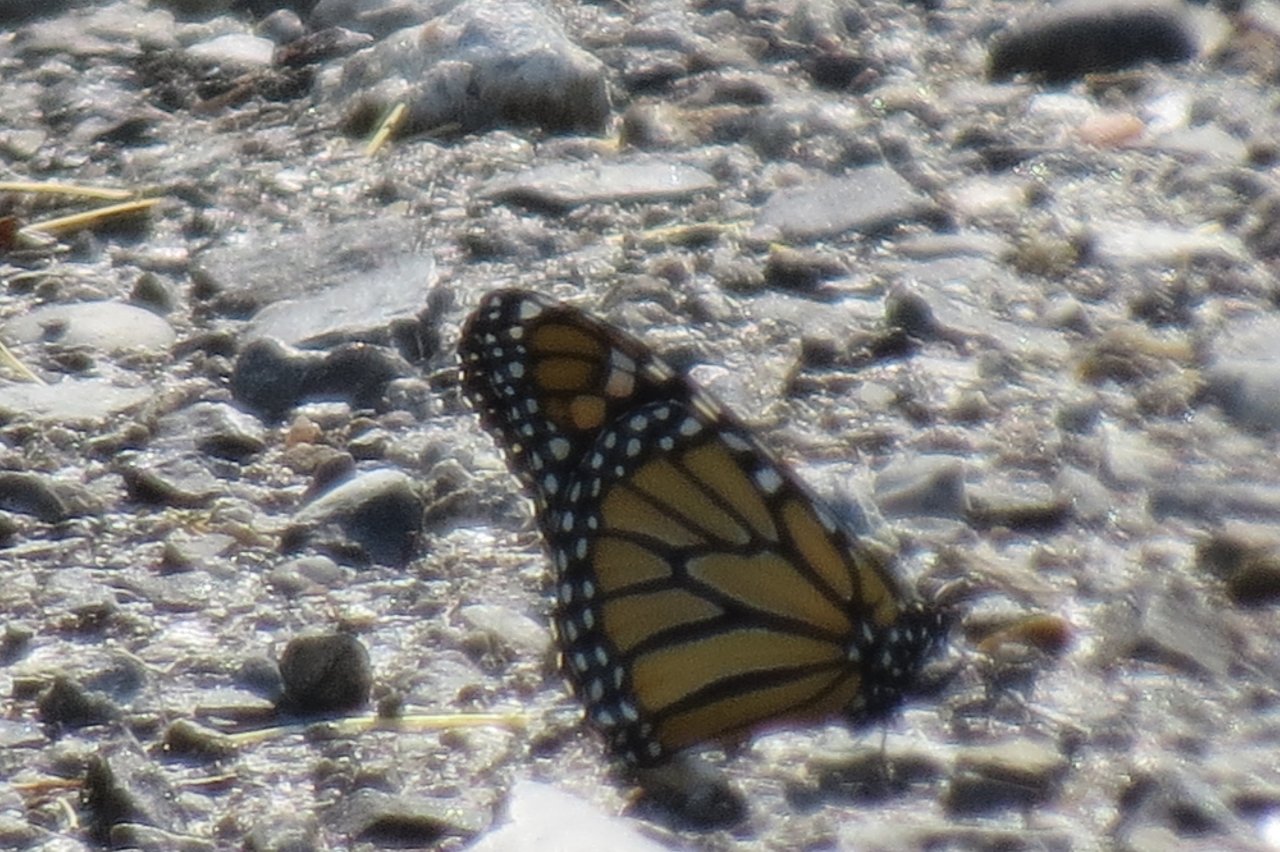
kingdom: Animalia
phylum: Arthropoda
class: Insecta
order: Lepidoptera
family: Nymphalidae
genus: Danaus
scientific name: Danaus plexippus
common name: Monarch
